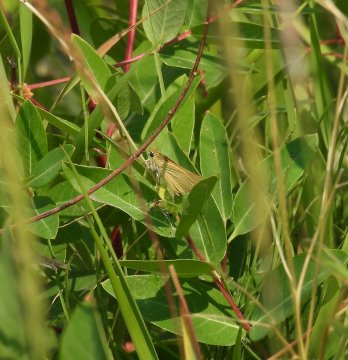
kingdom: Animalia
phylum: Arthropoda
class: Insecta
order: Lepidoptera
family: Hesperiidae
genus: Thymelicus
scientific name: Thymelicus lineola
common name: European Skipper
